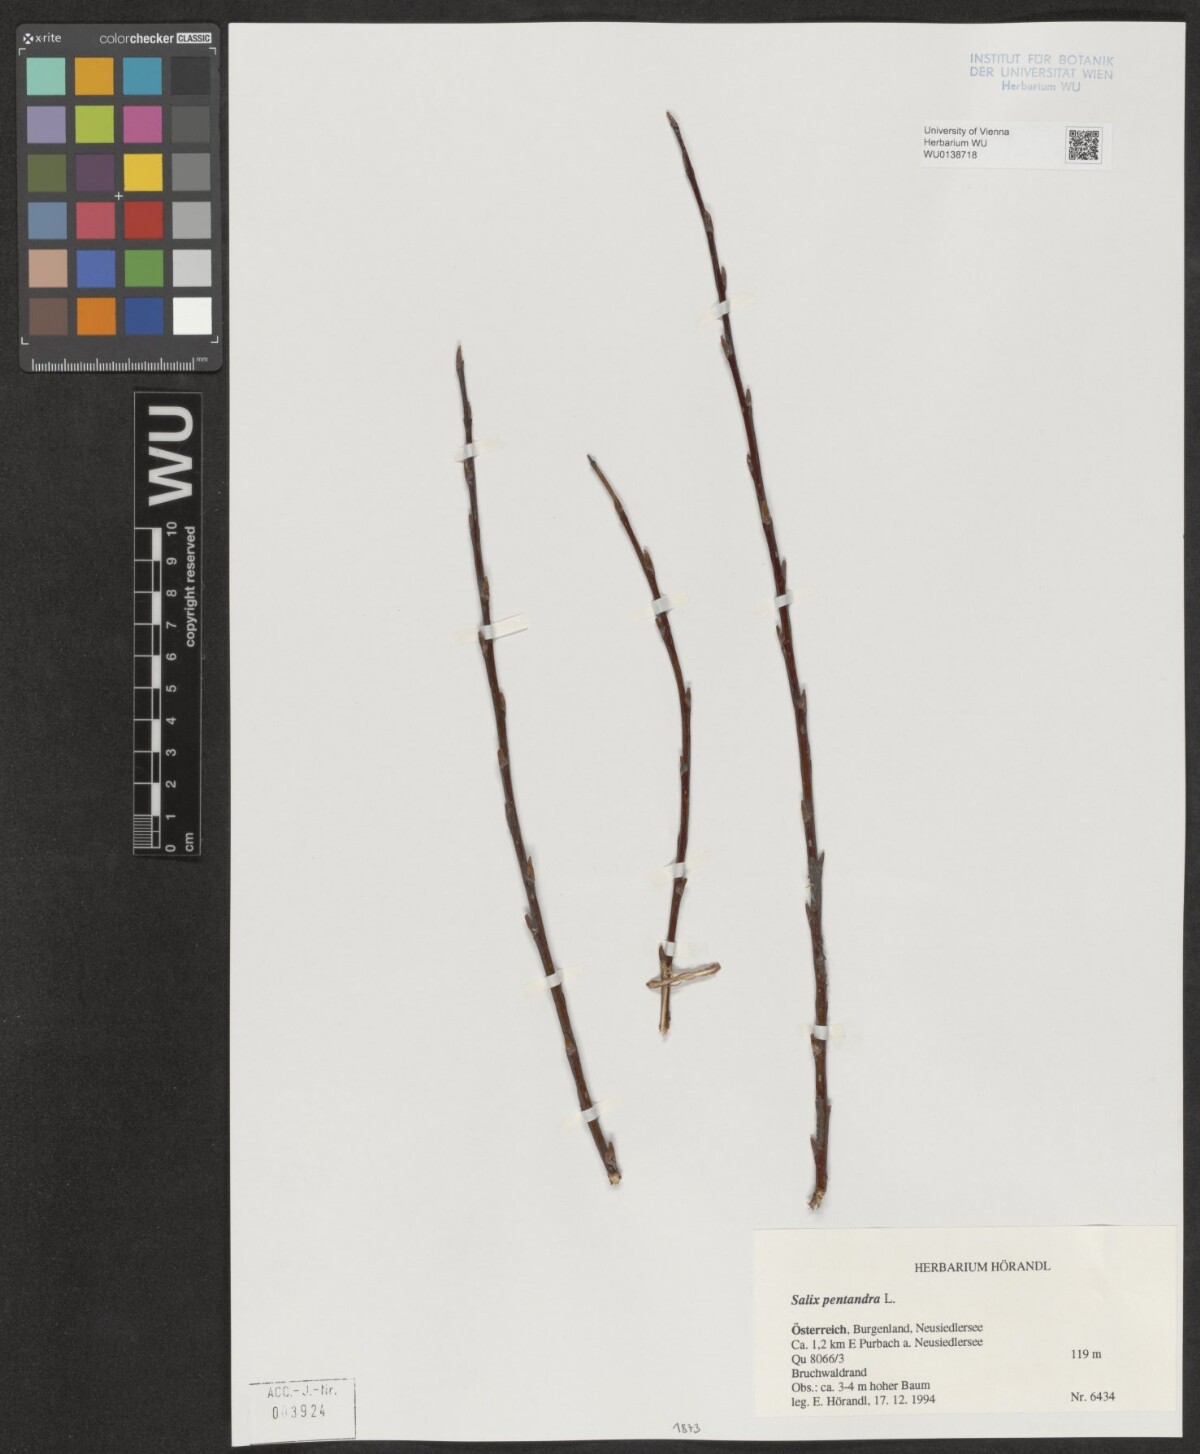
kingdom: Plantae
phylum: Tracheophyta
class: Magnoliopsida
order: Malpighiales
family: Salicaceae
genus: Salix
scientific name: Salix pentandra
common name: Bay willow
